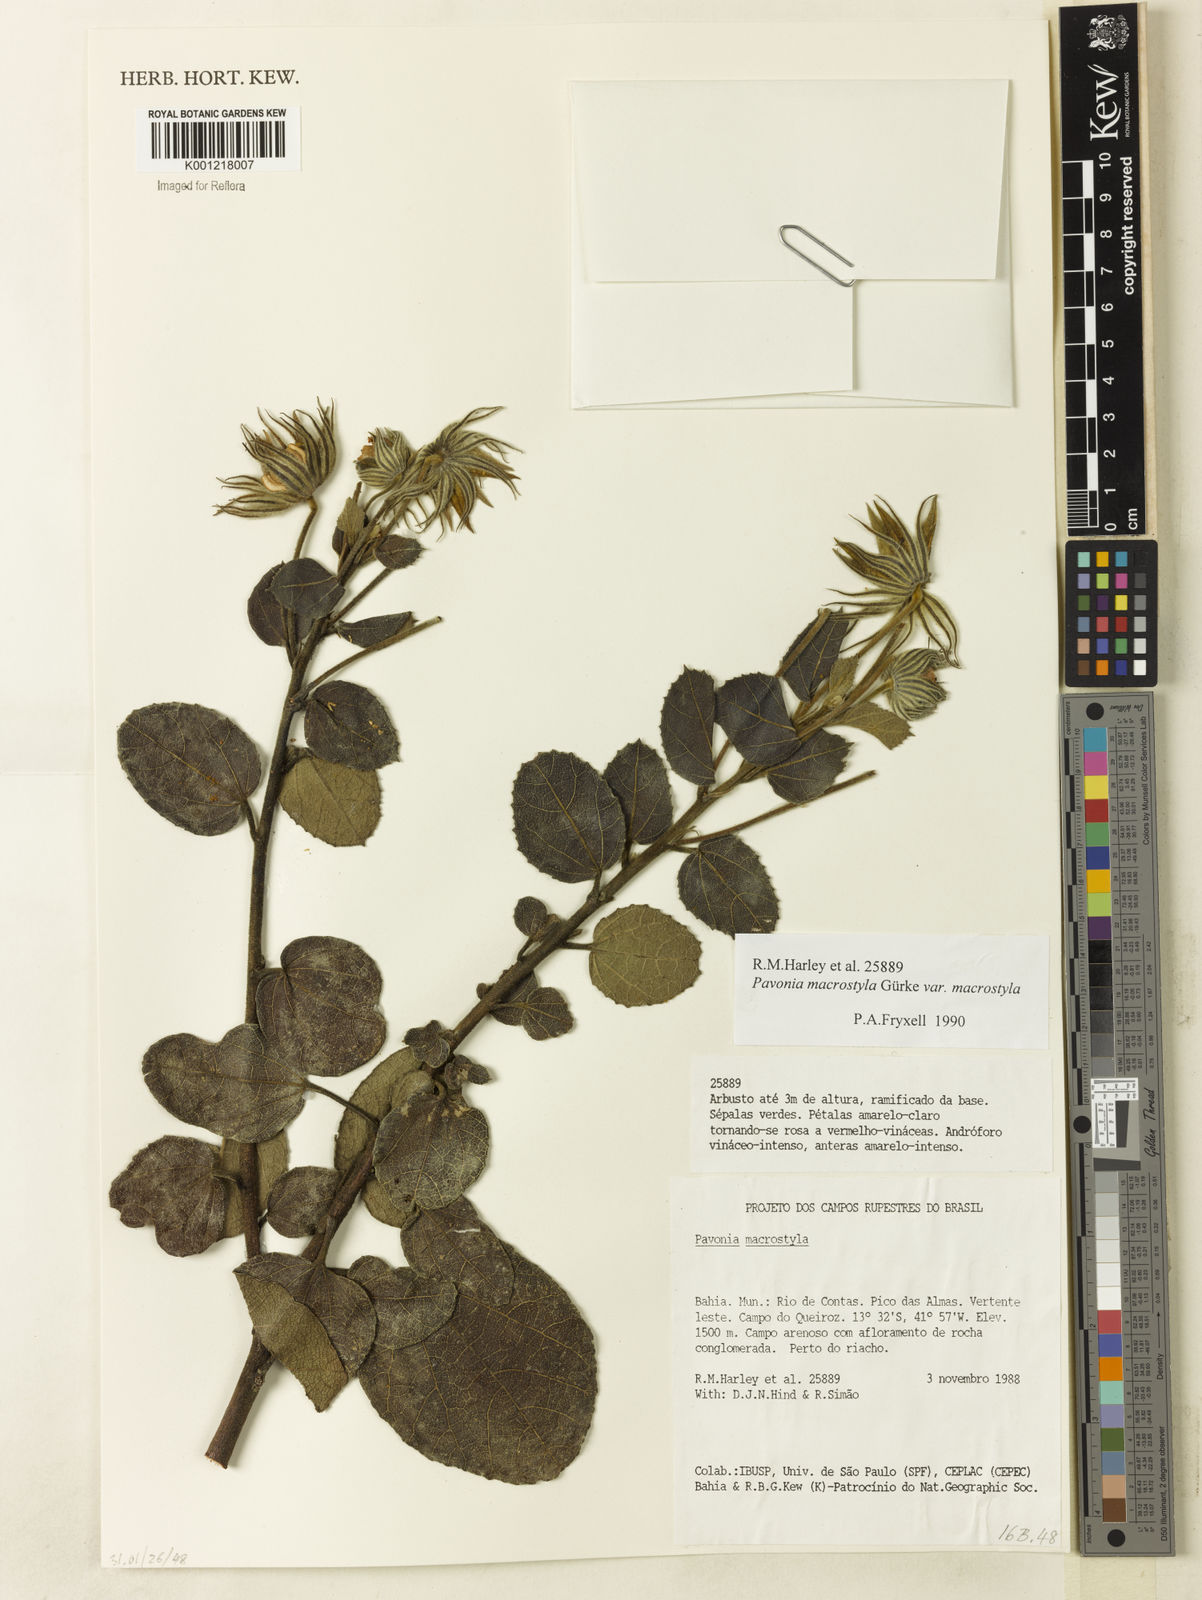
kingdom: Plantae
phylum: Tracheophyta
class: Magnoliopsida
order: Malvales
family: Malvaceae
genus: Pavonia
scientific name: Pavonia macrostyla
